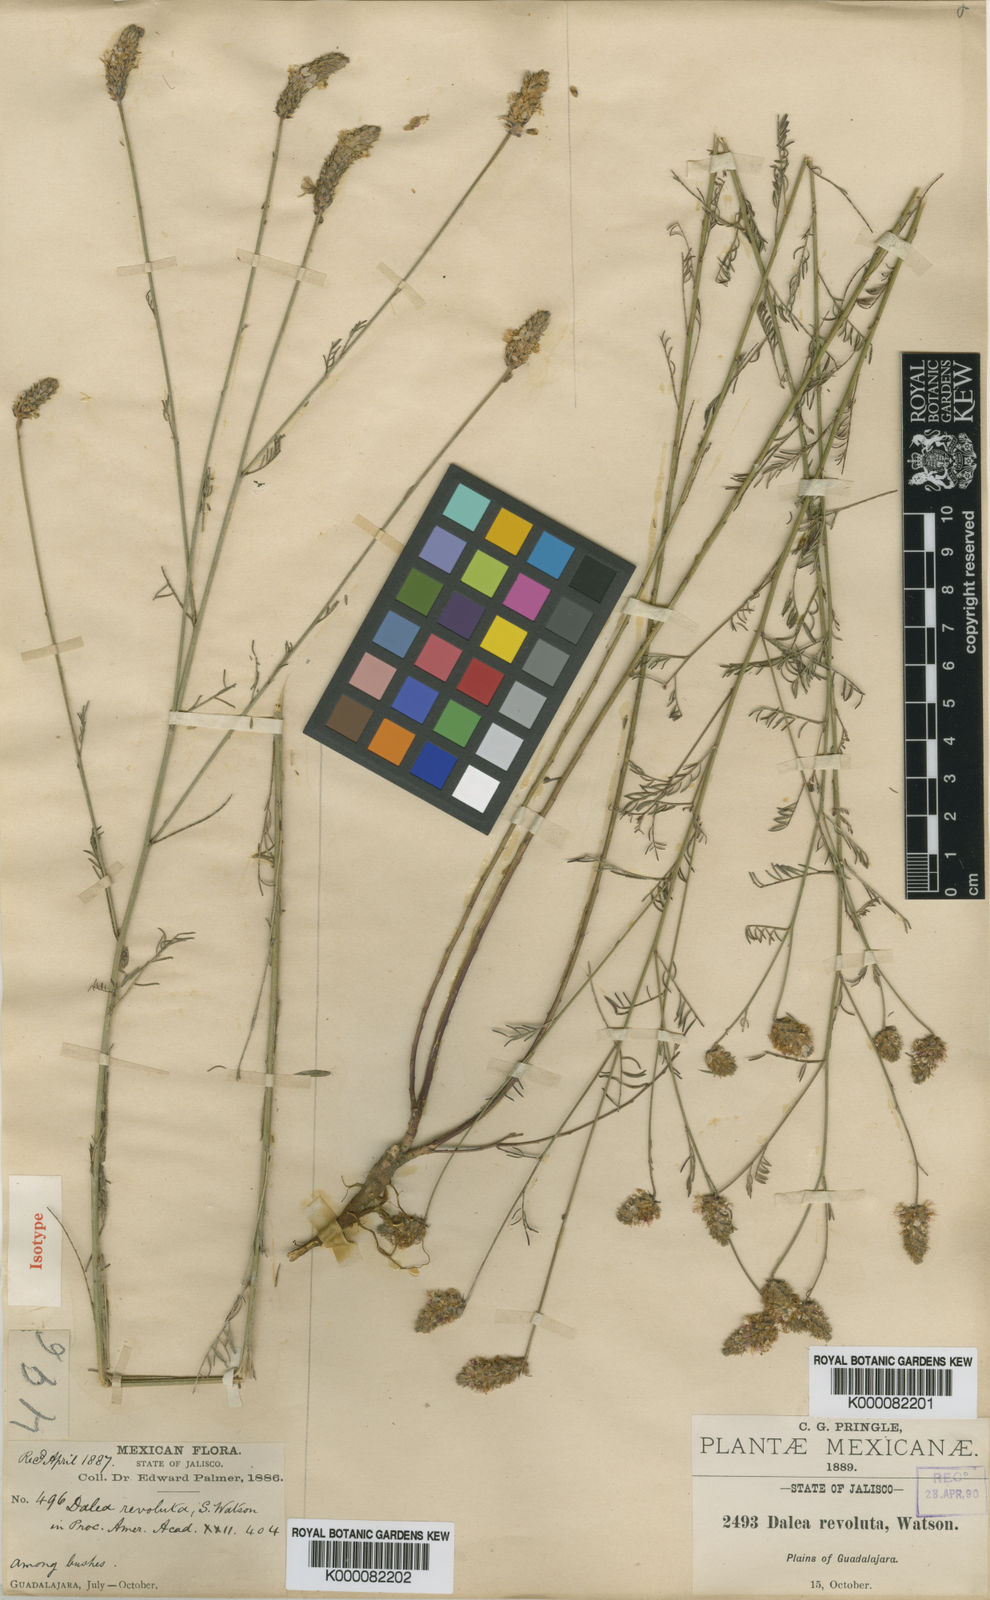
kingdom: Plantae
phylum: Tracheophyta
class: Magnoliopsida
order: Fabales
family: Fabaceae
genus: Dalea
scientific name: Dalea revoluta
